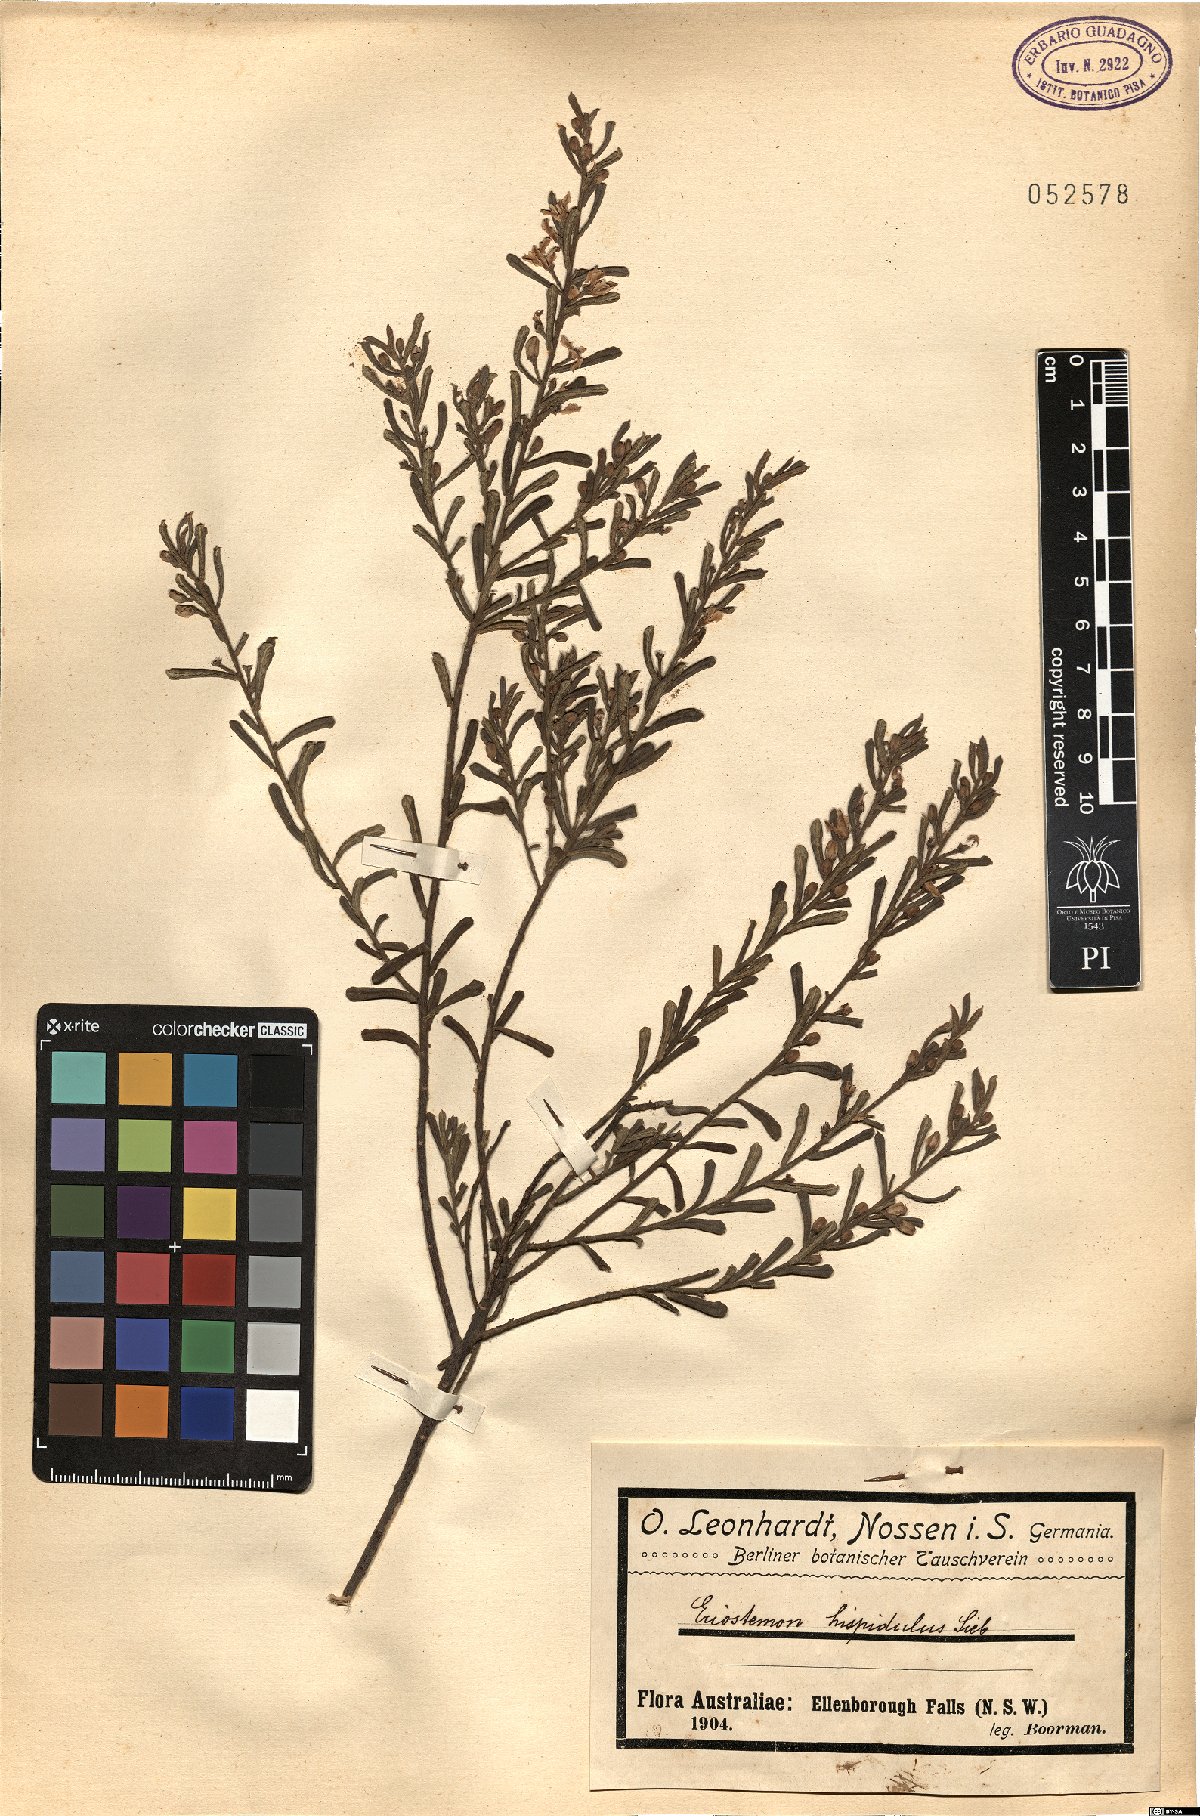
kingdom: Plantae
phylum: Tracheophyta
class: Magnoliopsida
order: Sapindales
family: Rutaceae
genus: Philotheca
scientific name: Philotheca hispidula
